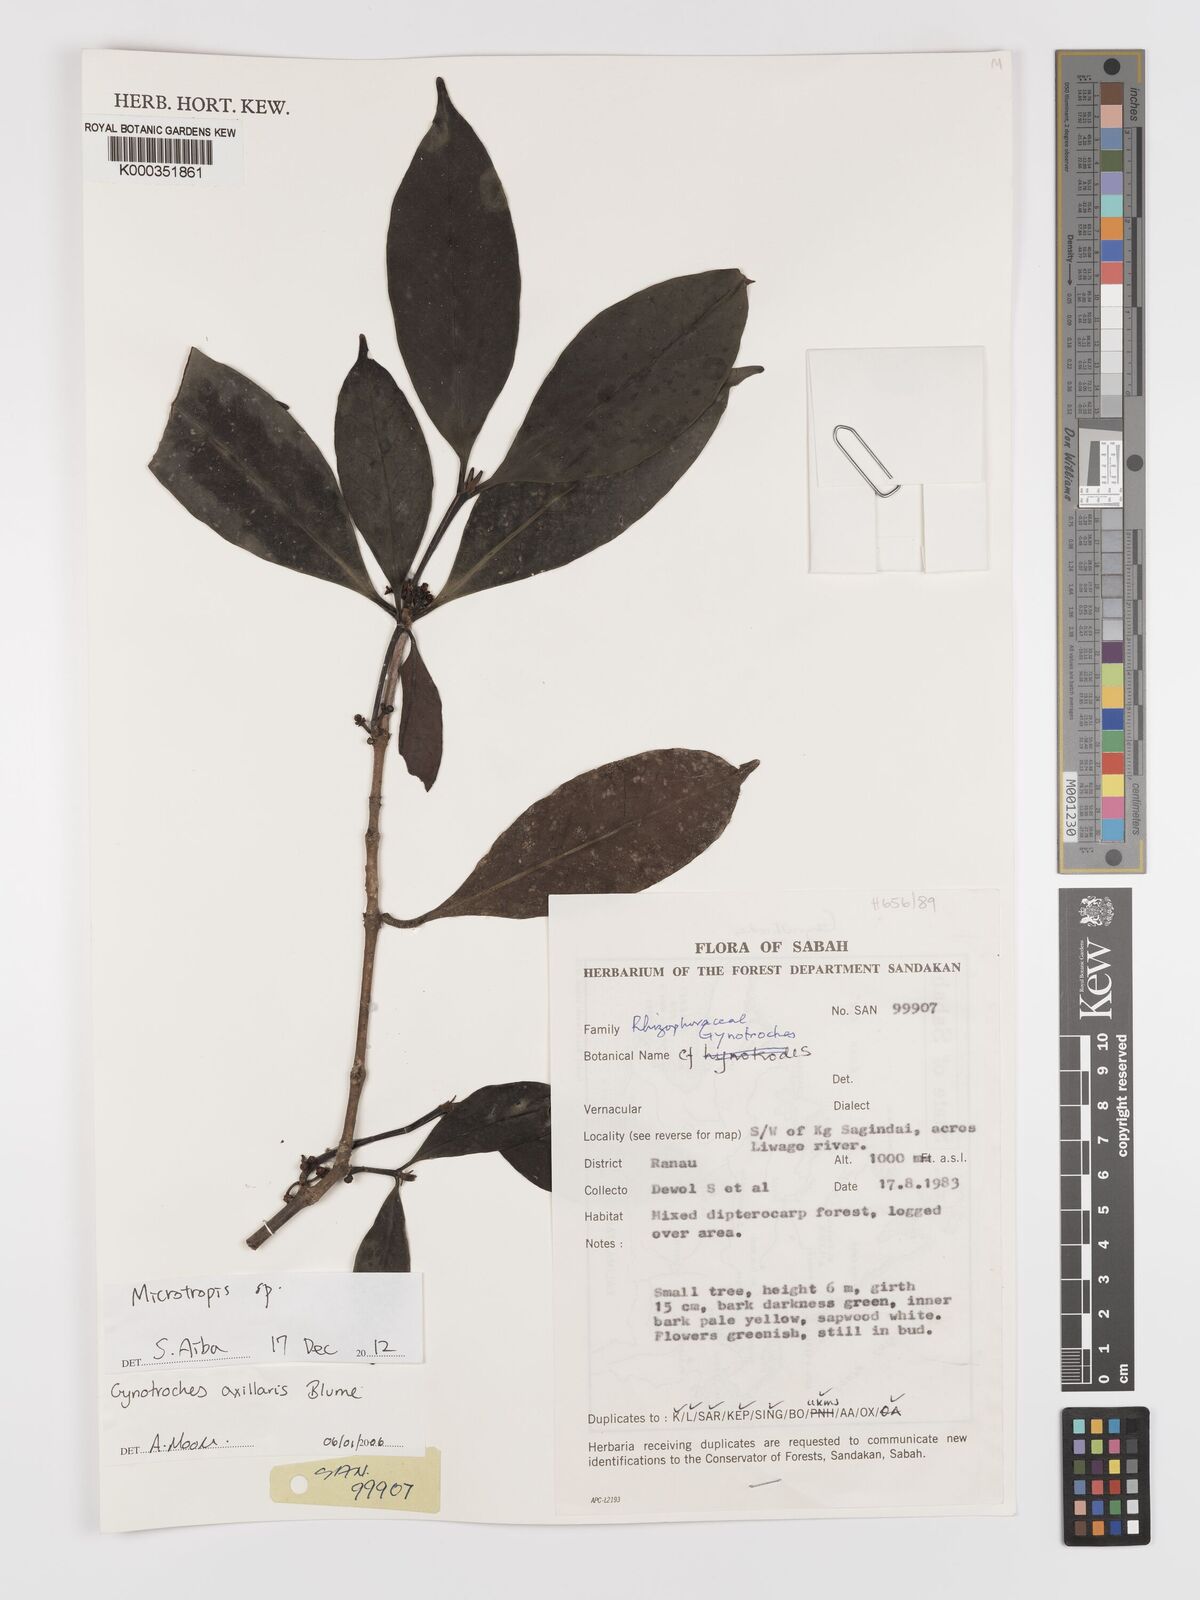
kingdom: Plantae
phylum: Tracheophyta
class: Magnoliopsida
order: Malpighiales
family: Rhizophoraceae
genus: Gynotroches
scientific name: Gynotroches axillaris
